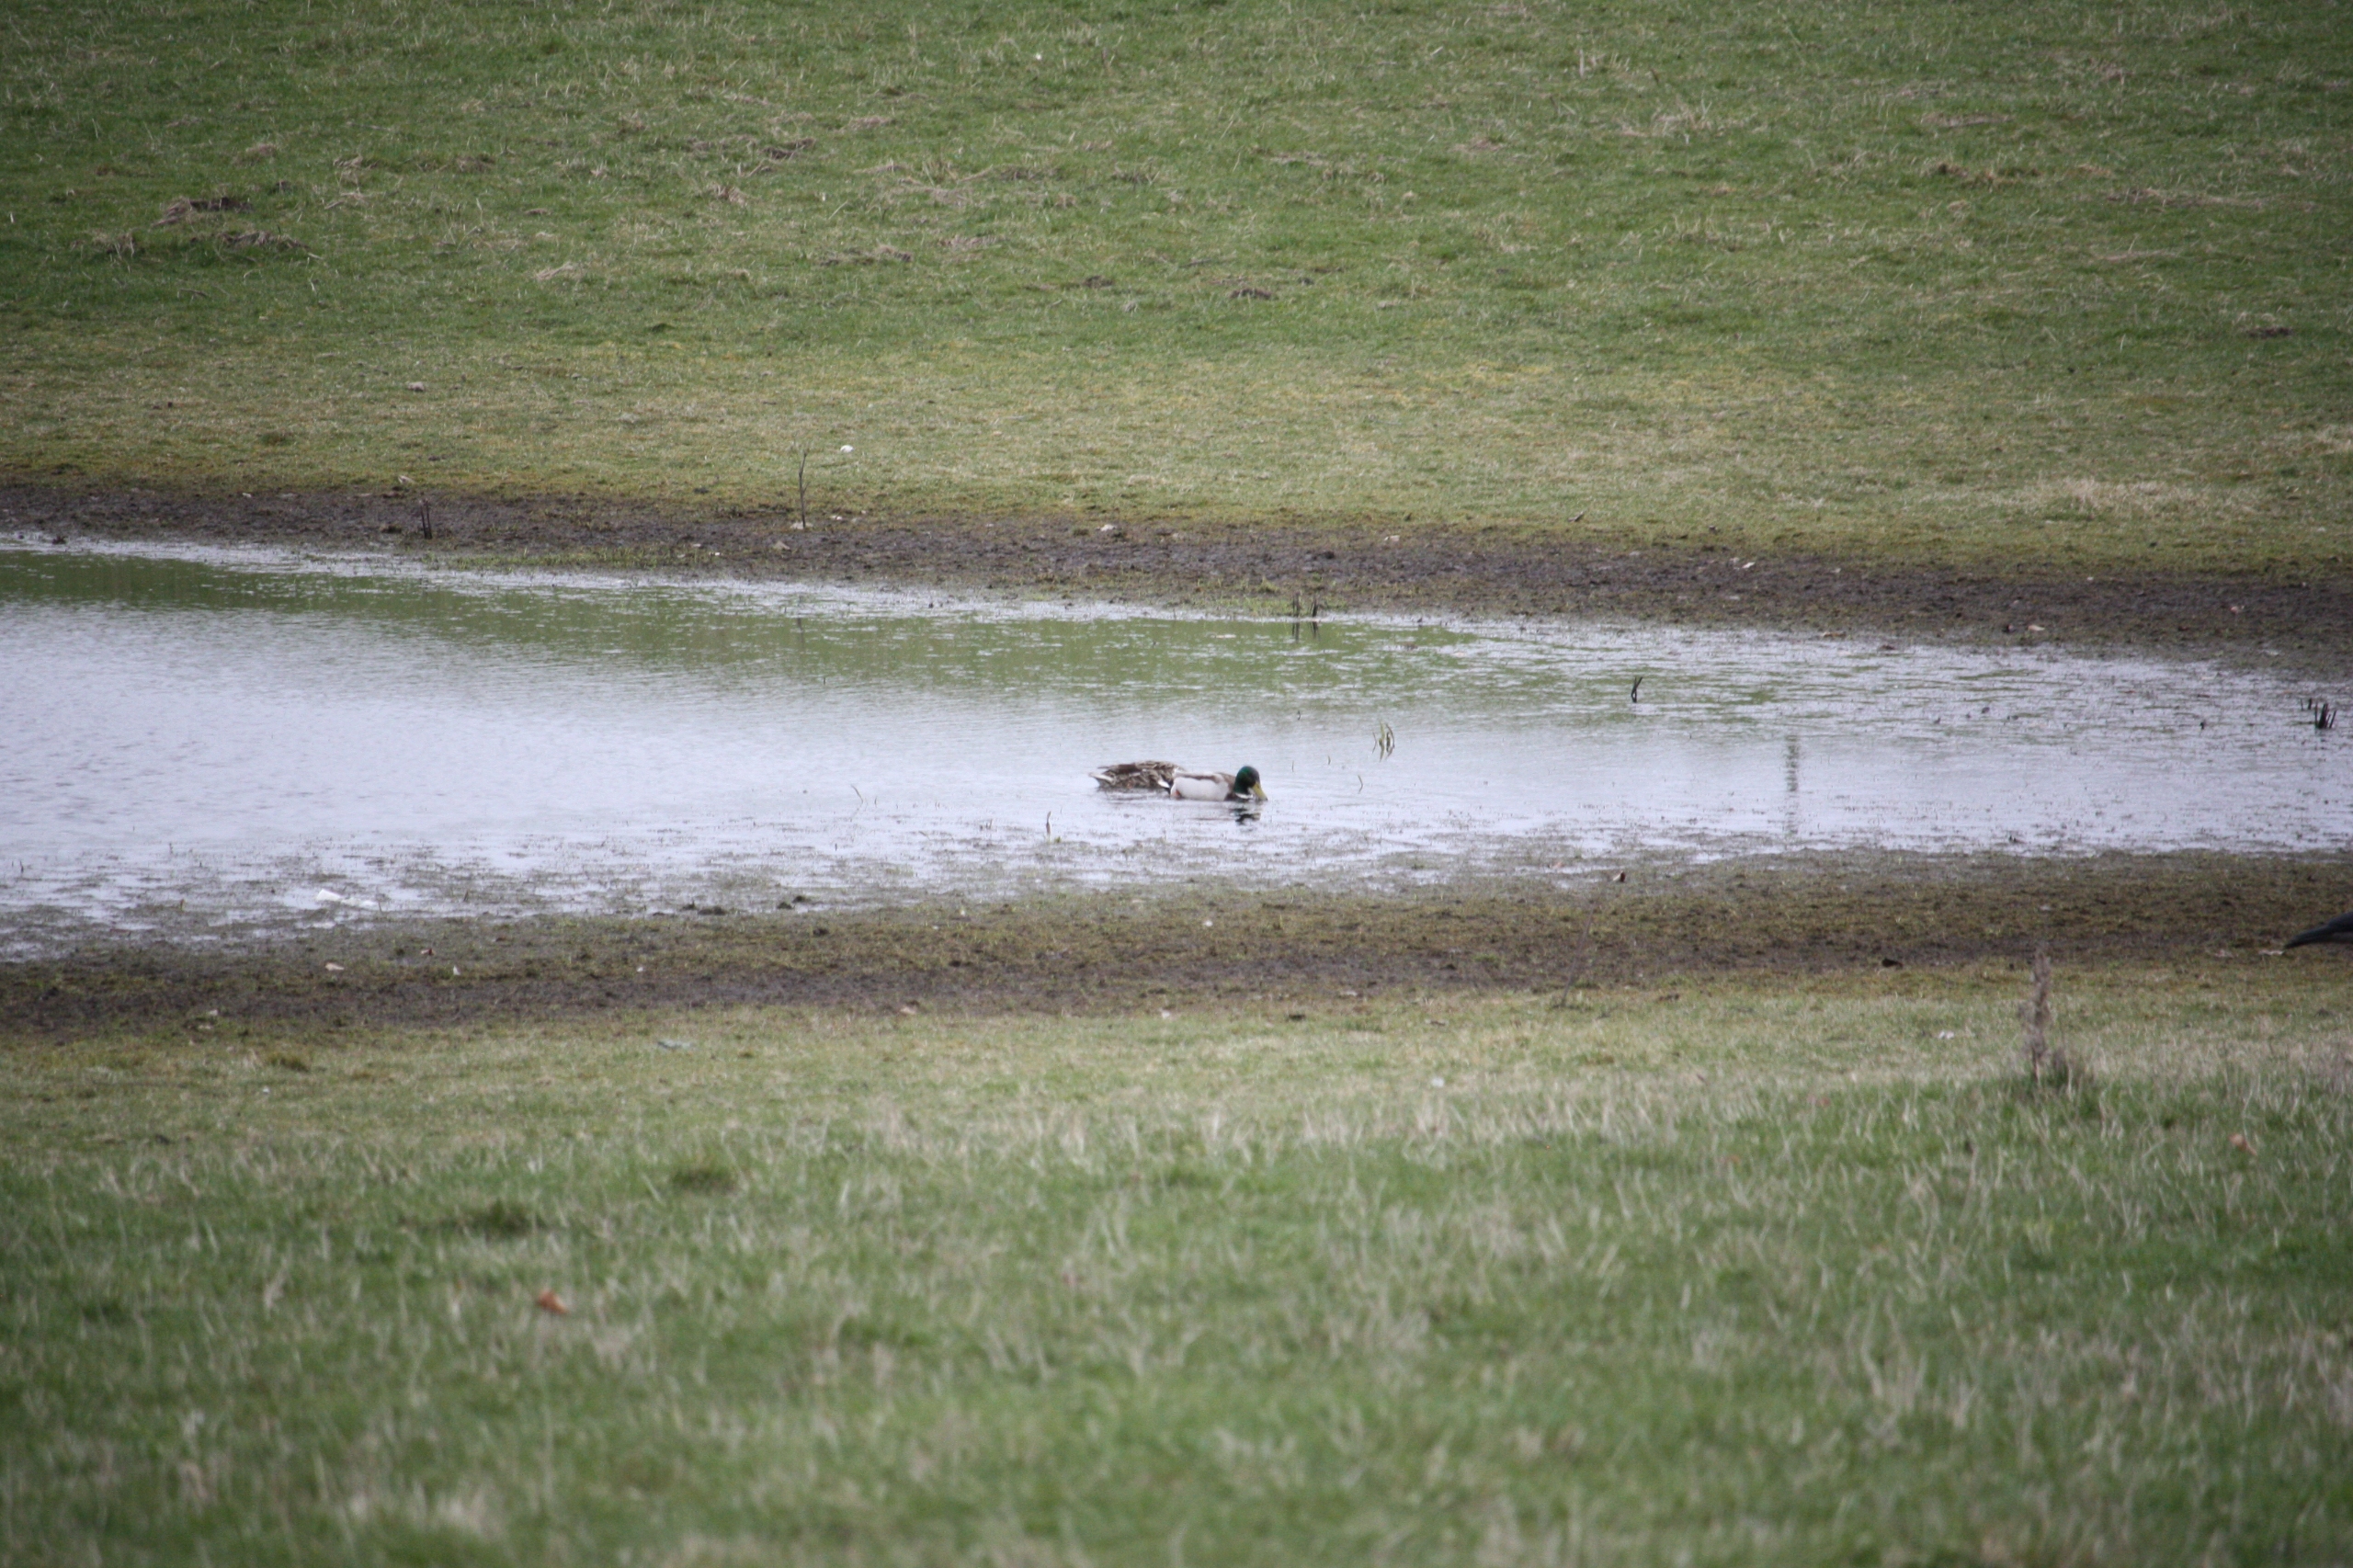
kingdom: Animalia
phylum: Chordata
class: Aves
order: Anseriformes
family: Anatidae
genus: Anas
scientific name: Anas platyrhynchos
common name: Gråand
